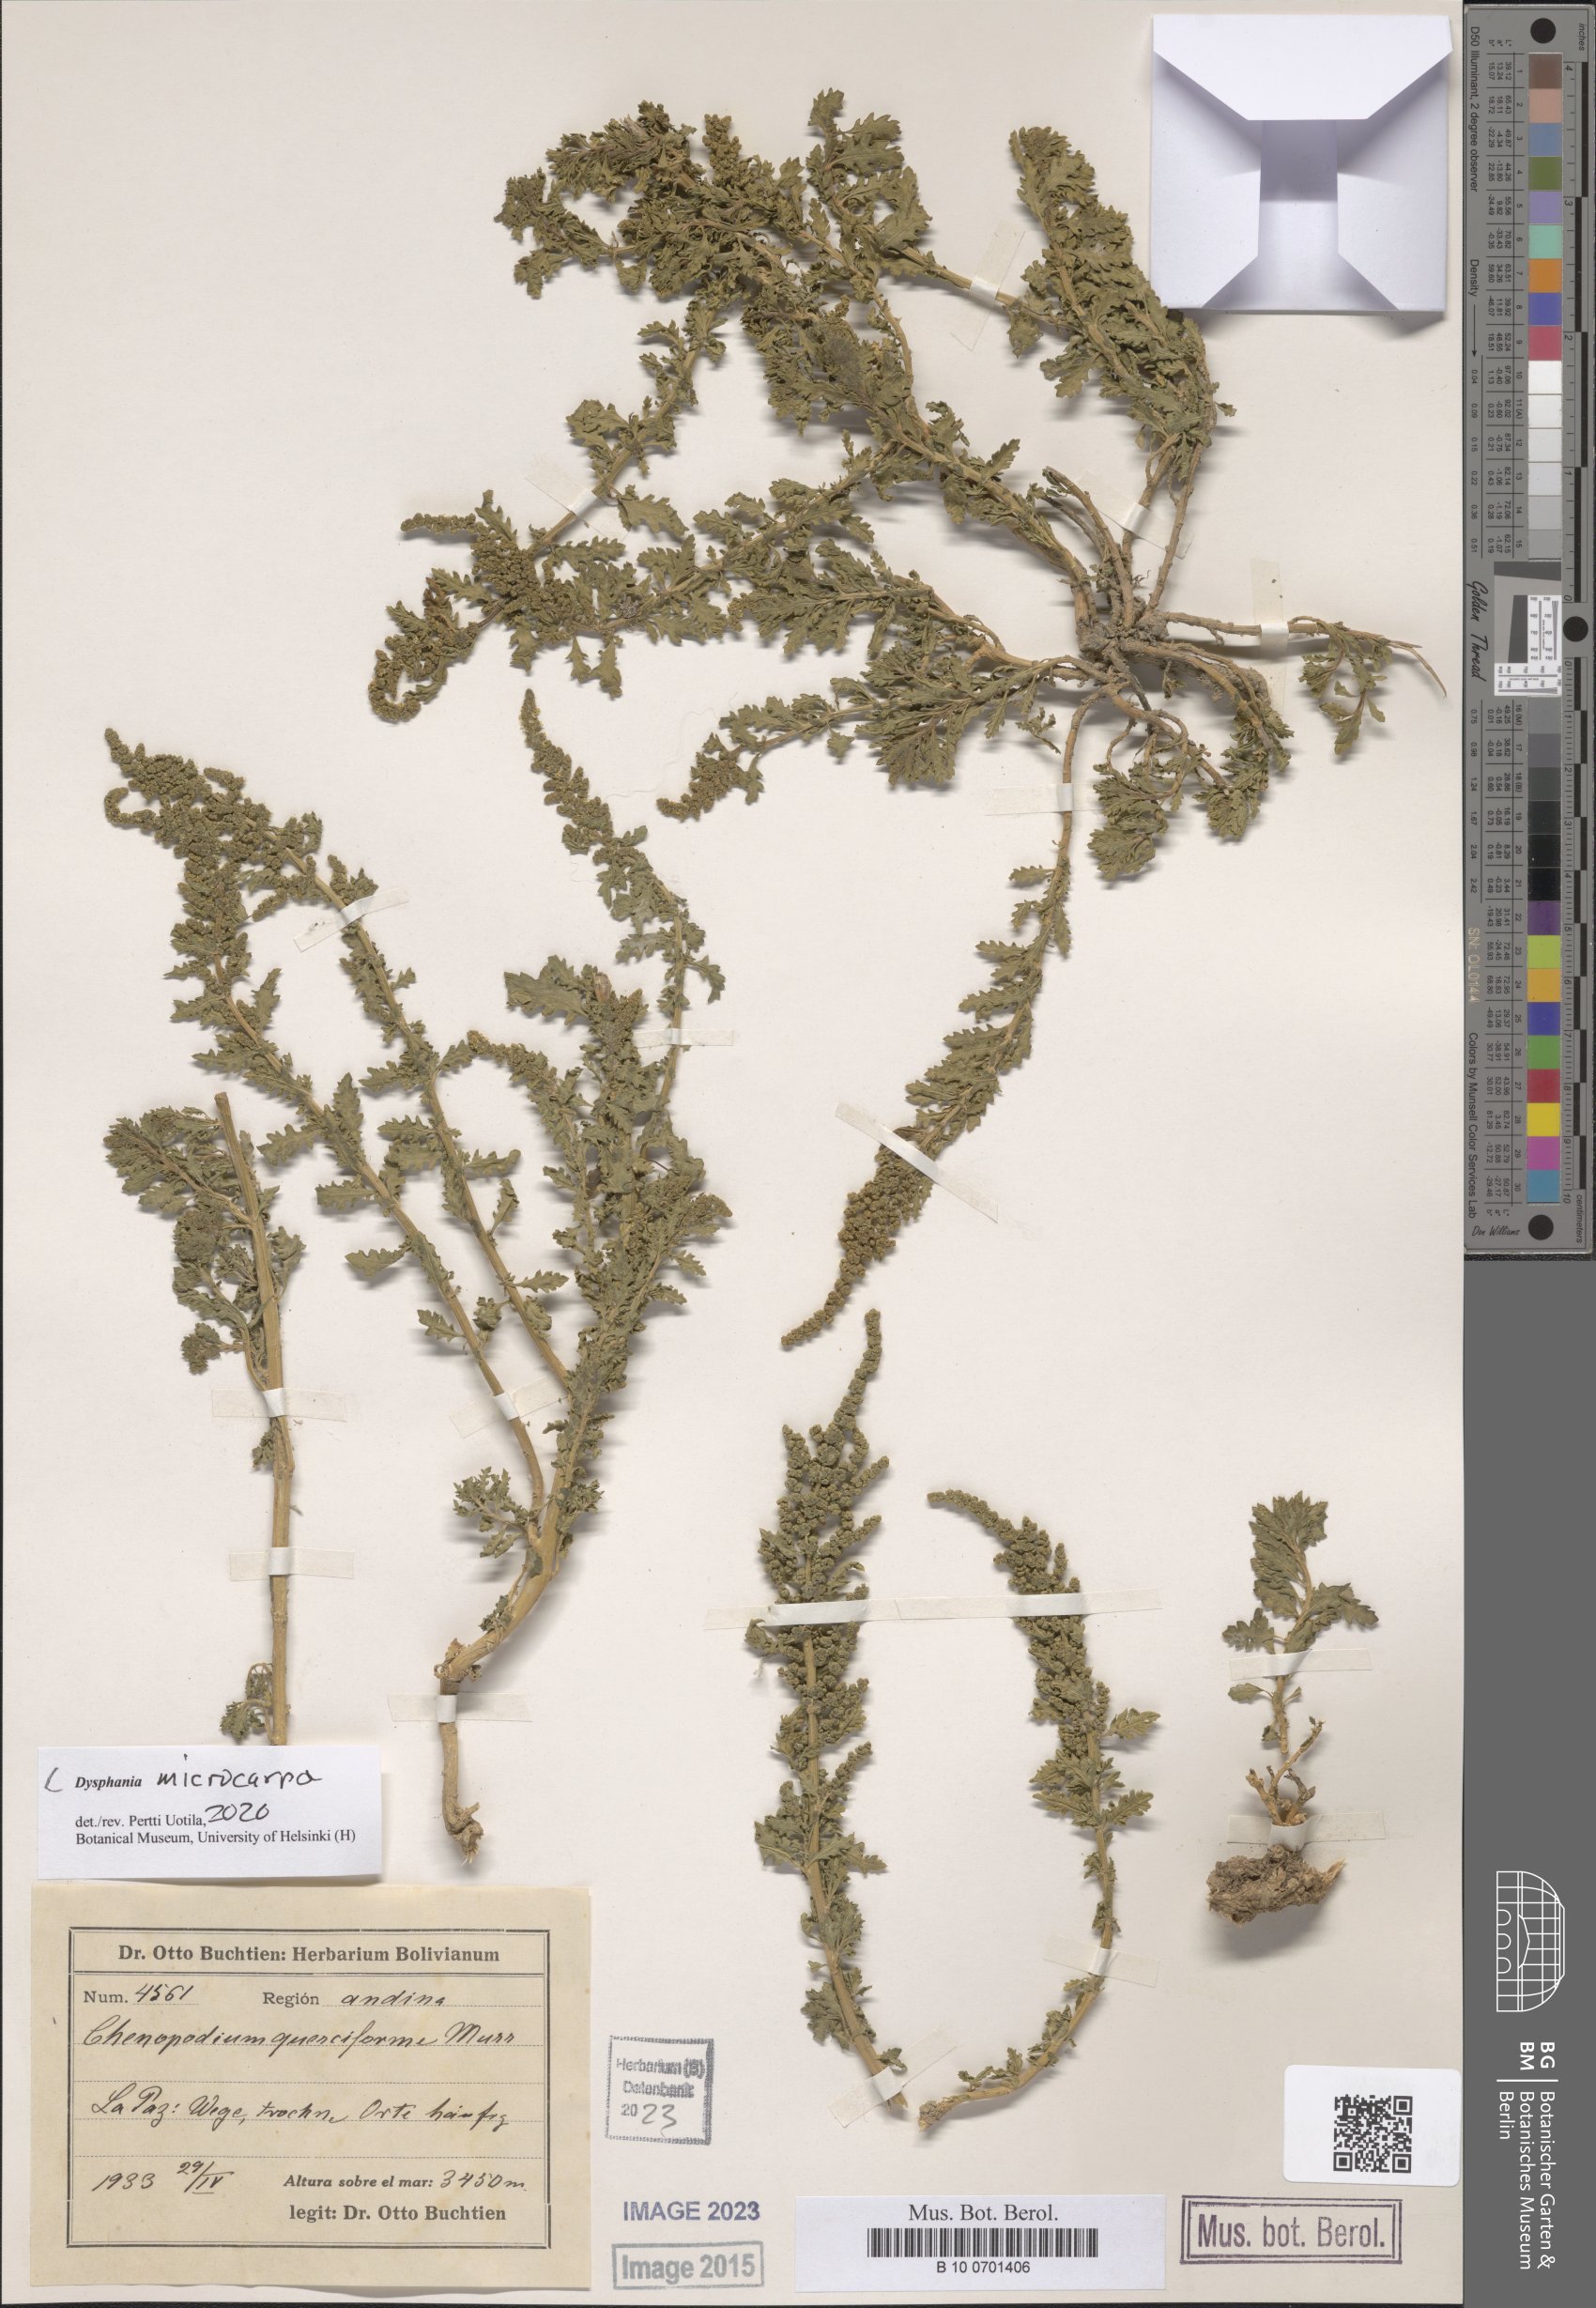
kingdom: Plantae
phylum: Tracheophyta
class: Magnoliopsida
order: Caryophyllales
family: Amaranthaceae
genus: Dysphania
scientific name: Dysphania microcarpa
